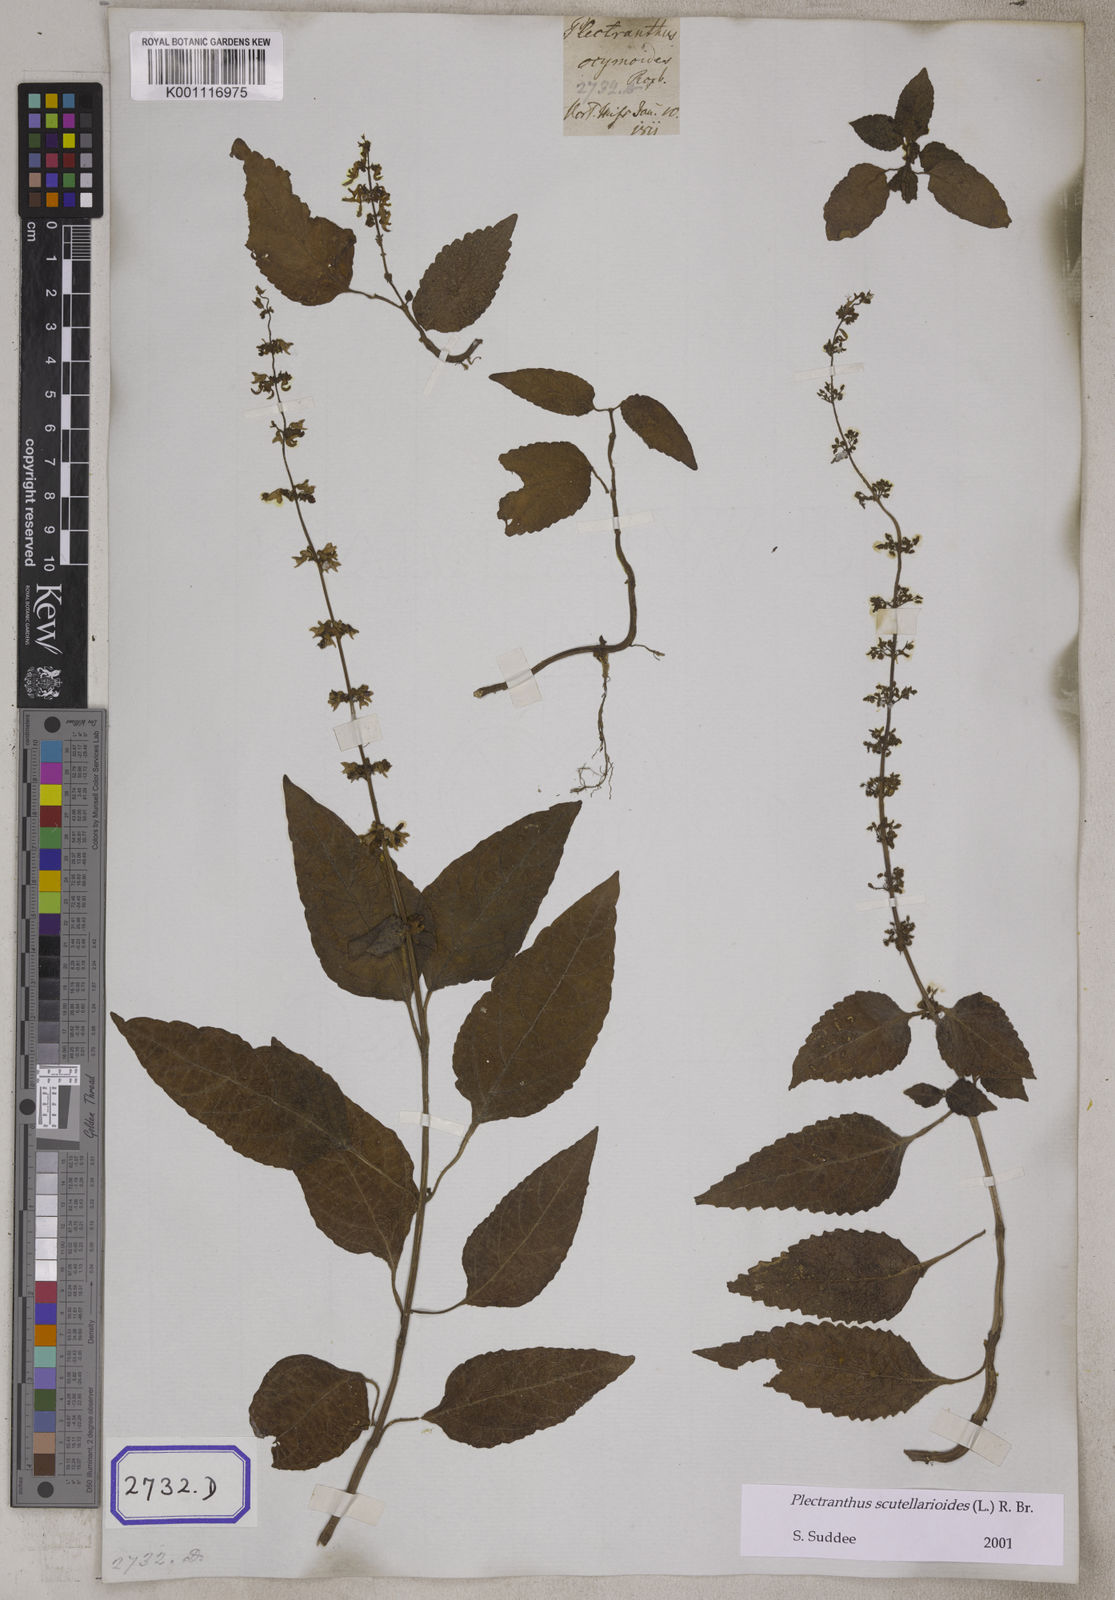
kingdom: Plantae
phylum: Tracheophyta
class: Magnoliopsida
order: Lamiales
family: Lamiaceae
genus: Coleus
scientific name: Coleus scutellarioides
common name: Coleus
